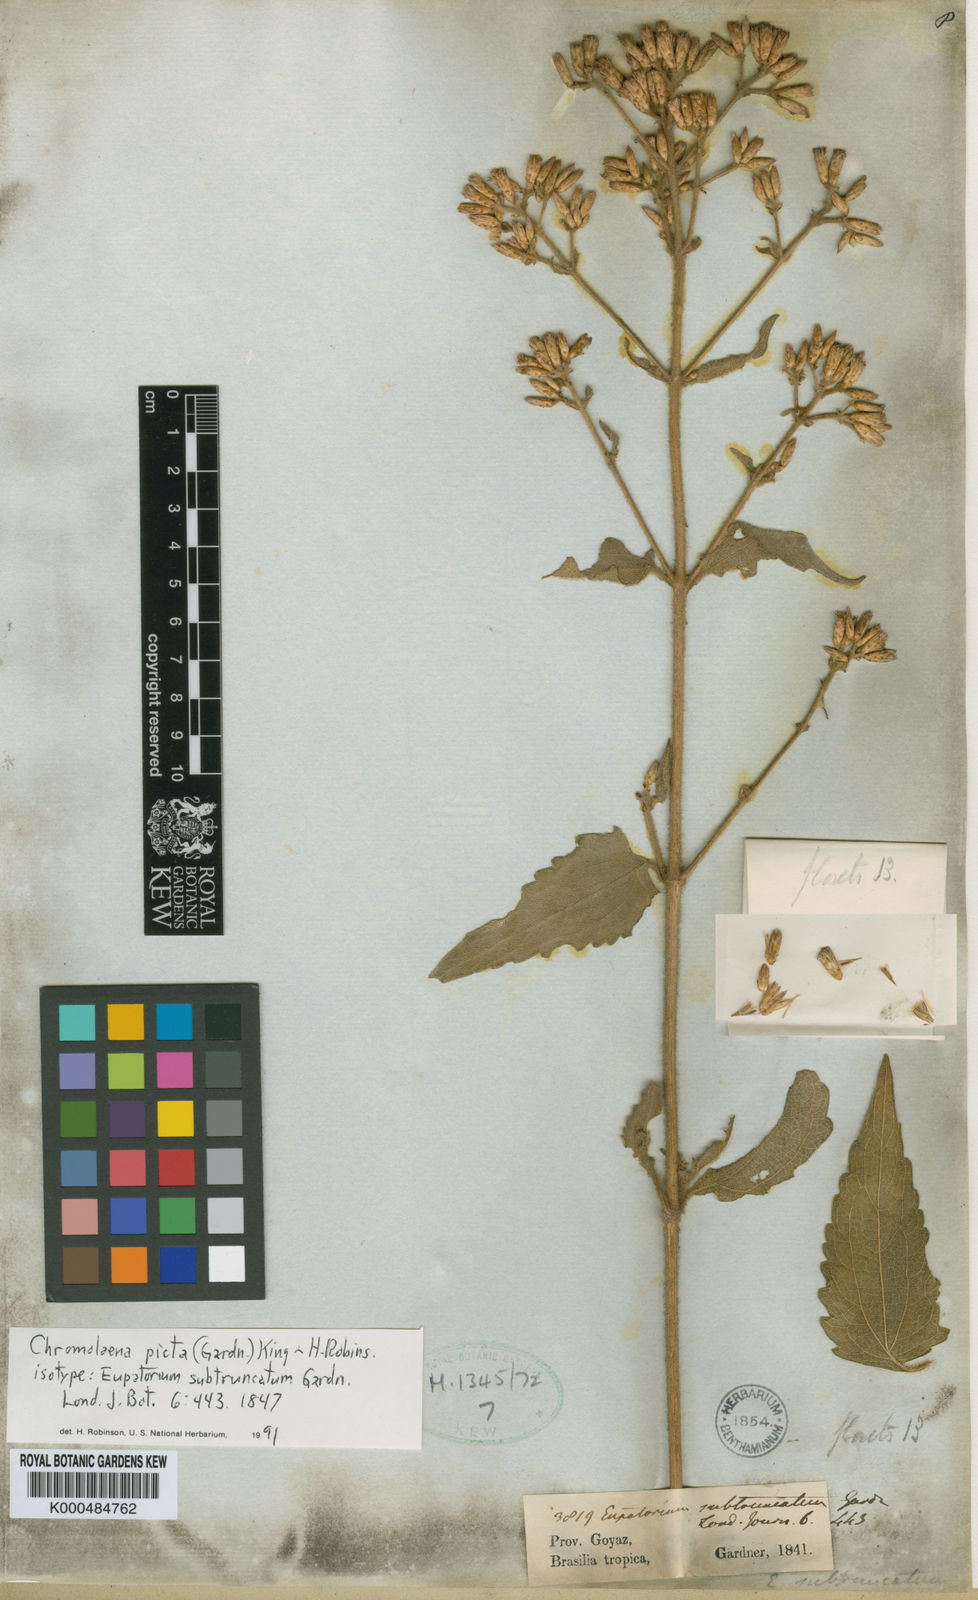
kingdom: Plantae
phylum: Tracheophyta
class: Magnoliopsida
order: Asterales
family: Asteraceae
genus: Chromolaena
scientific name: Chromolaena picta
